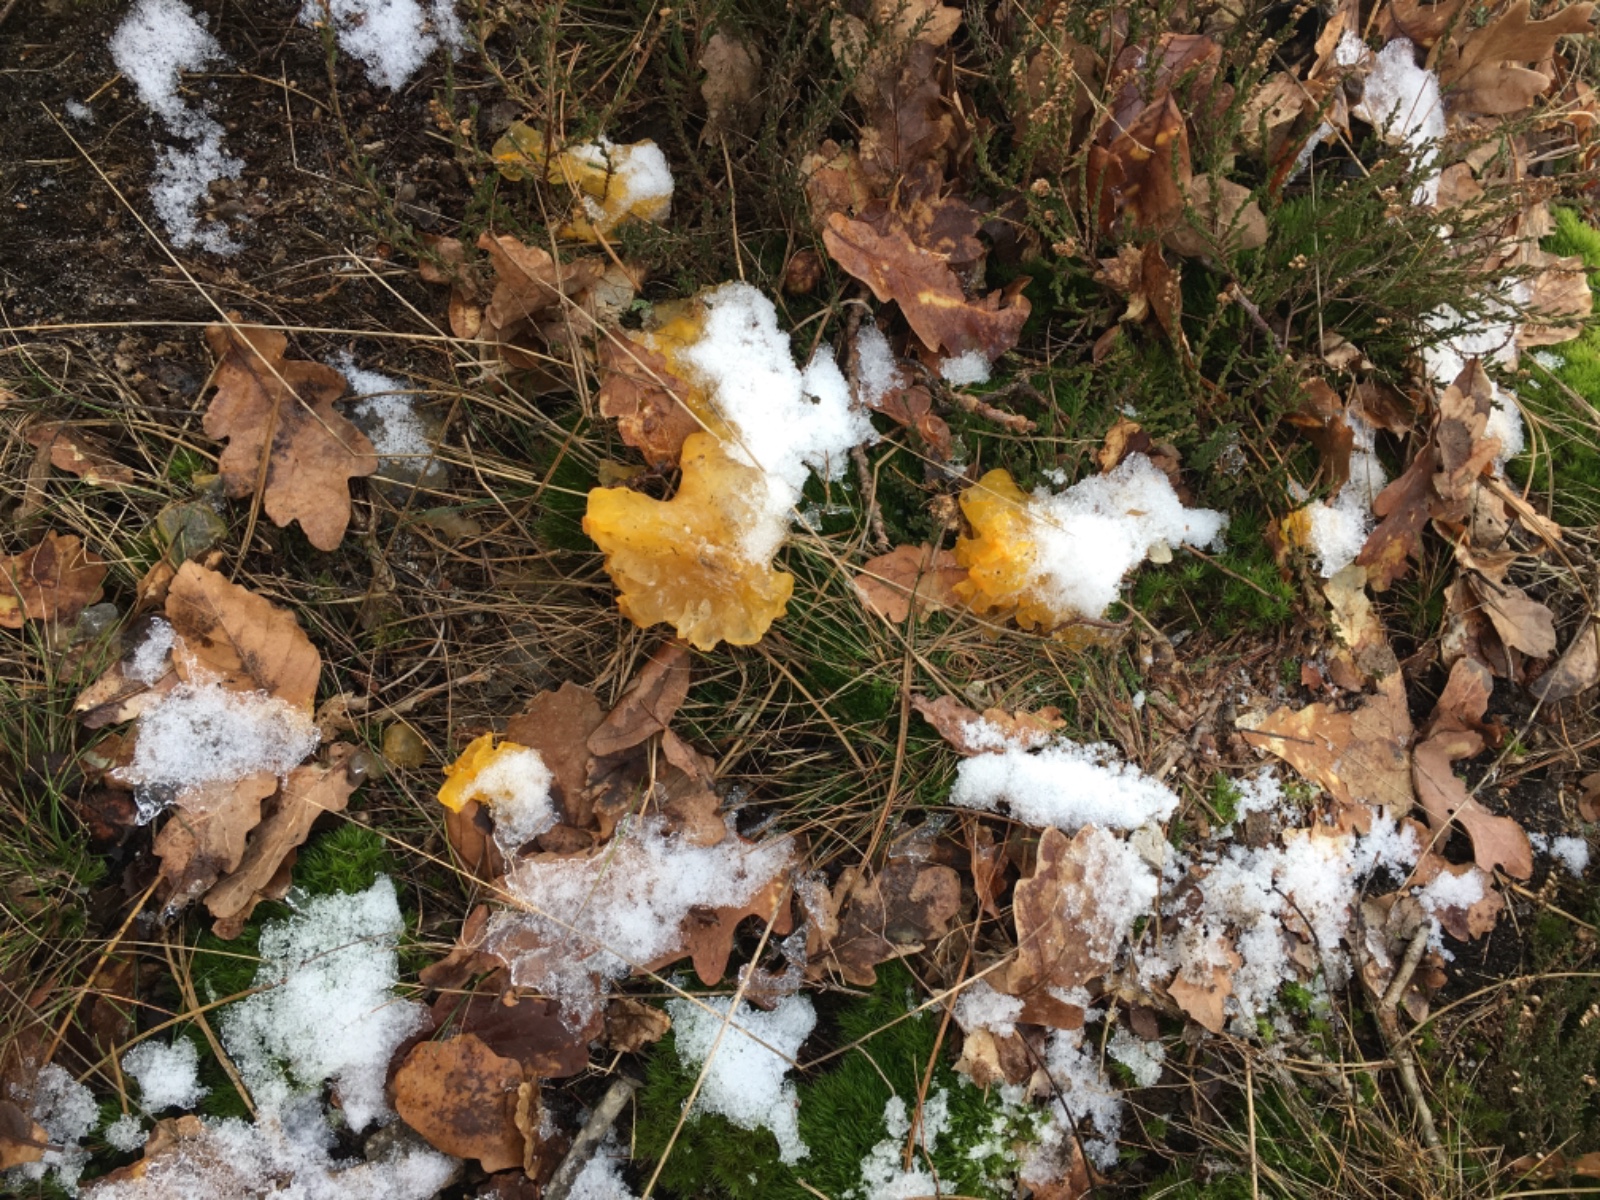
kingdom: Fungi
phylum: Basidiomycota
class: Tremellomycetes
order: Tremellales
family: Tremellaceae
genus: Tremella
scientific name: Tremella mesenterica
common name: gul bævresvamp
